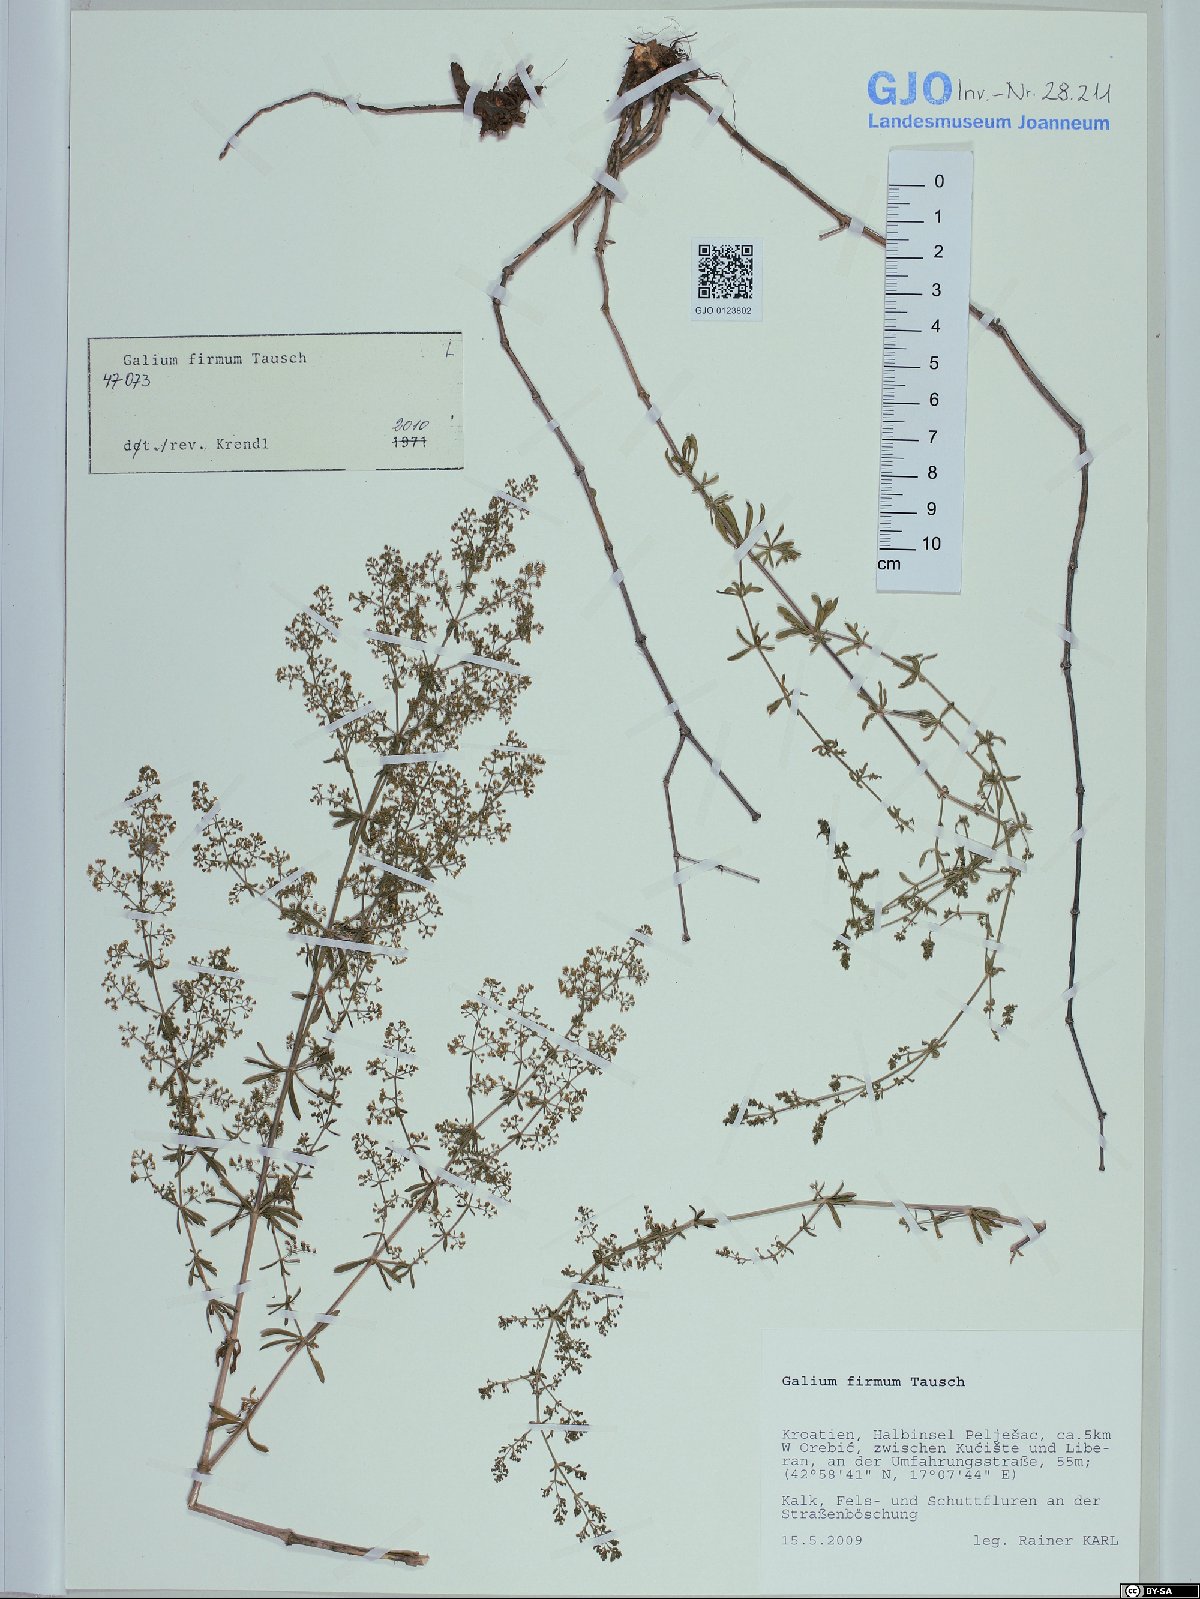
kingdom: Plantae
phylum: Tracheophyta
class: Magnoliopsida
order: Gentianales
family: Rubiaceae
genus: Galium
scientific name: Galium firmum
